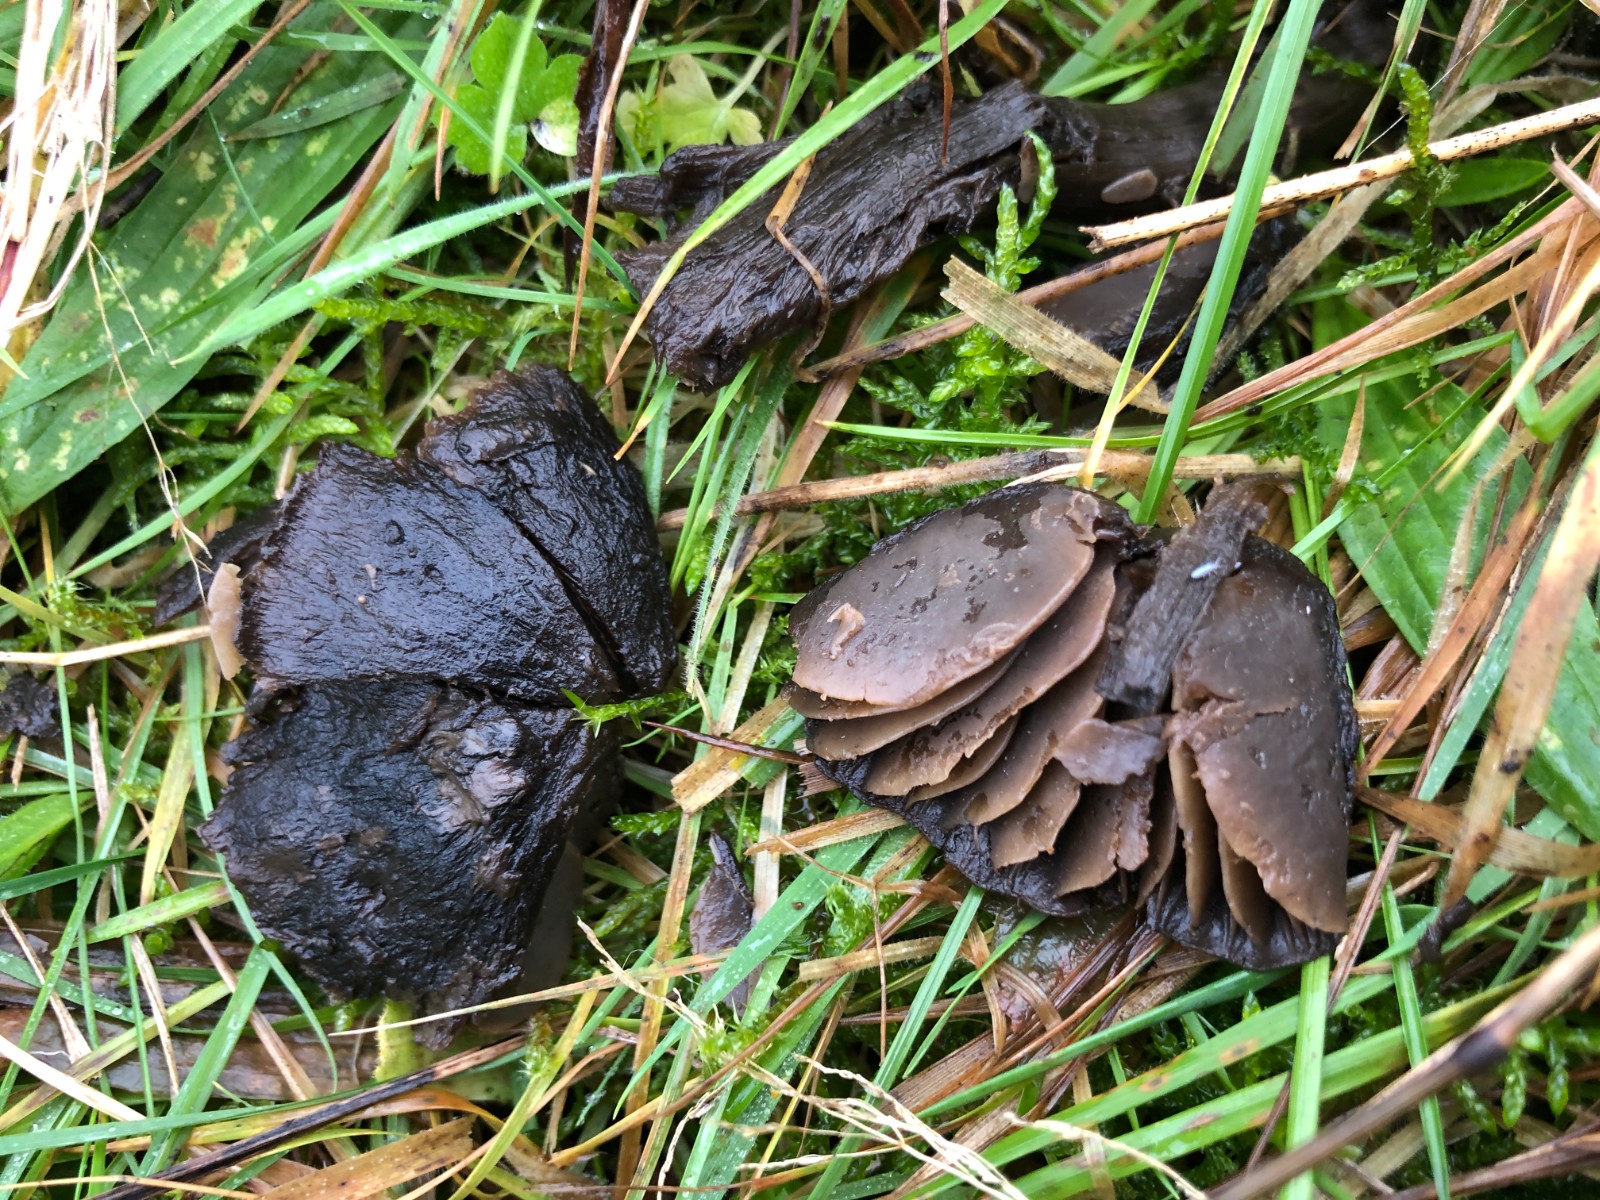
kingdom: Fungi
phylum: Basidiomycota
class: Agaricomycetes
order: Agaricales
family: Hygrophoraceae
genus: Neohygrocybe
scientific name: Neohygrocybe ovina
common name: rødmende vokshat
